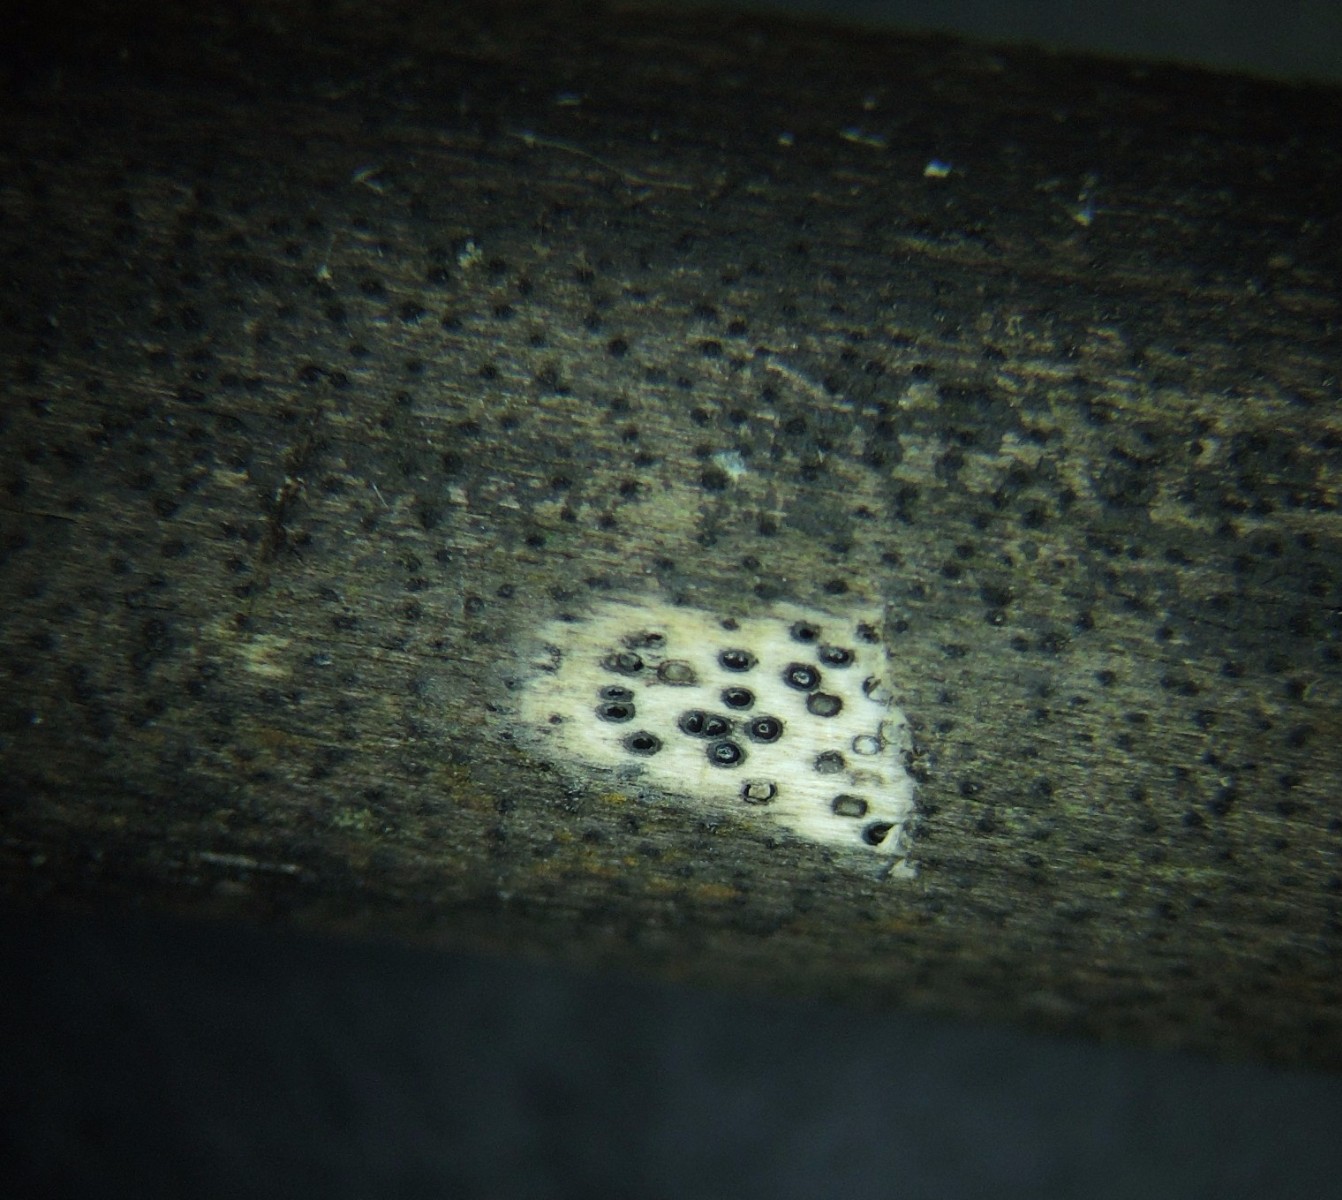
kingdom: Fungi
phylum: Ascomycota
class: Sordariomycetes
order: Xylariales
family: Diatrypaceae
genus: Eutypa
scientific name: Eutypa maura
